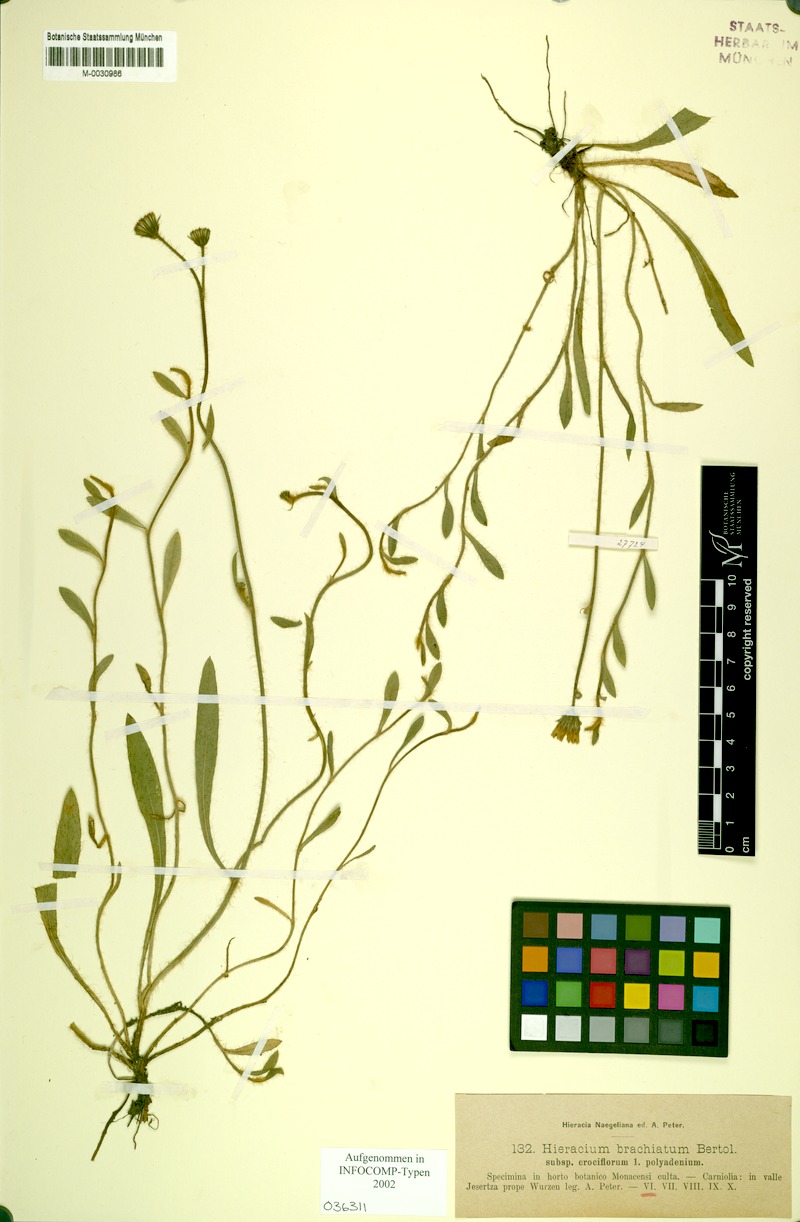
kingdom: Plantae
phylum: Tracheophyta
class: Magnoliopsida
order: Asterales
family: Asteraceae
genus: Pilosella
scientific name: Pilosella acutifolia
